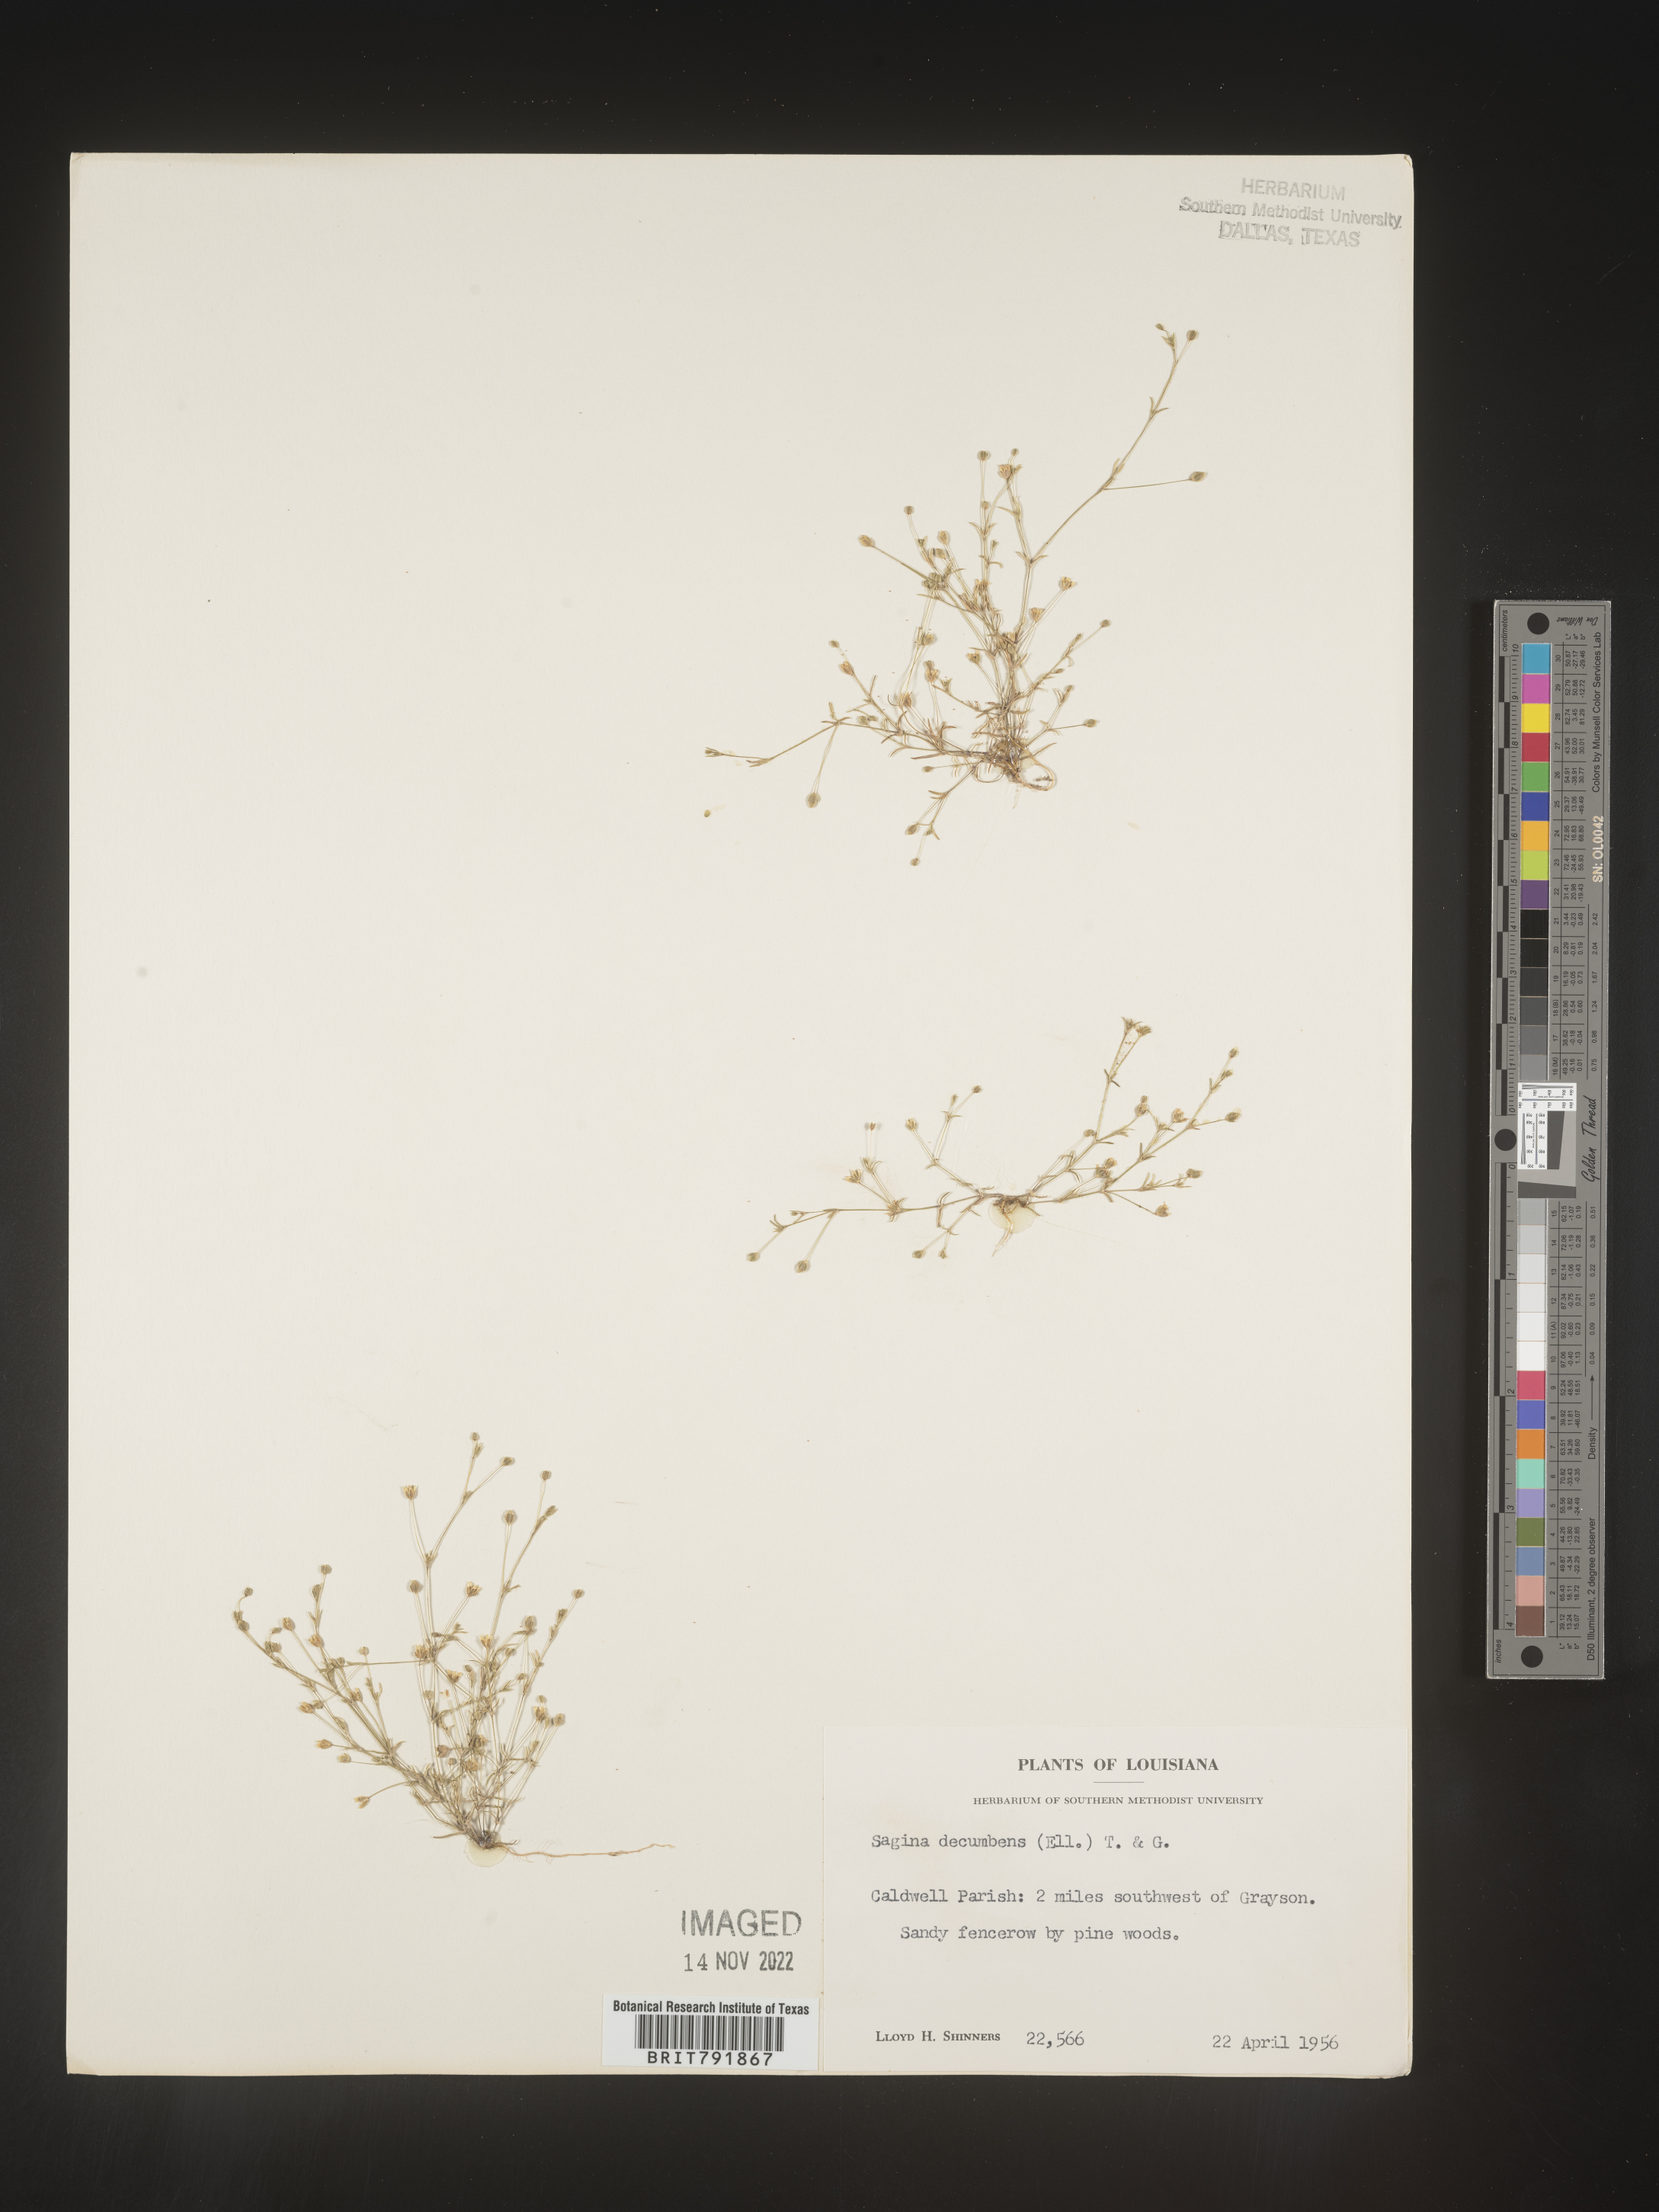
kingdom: Plantae
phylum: Tracheophyta
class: Magnoliopsida
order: Caryophyllales
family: Caryophyllaceae
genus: Sagina
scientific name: Sagina decumbens
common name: Decumbent pearlwort
